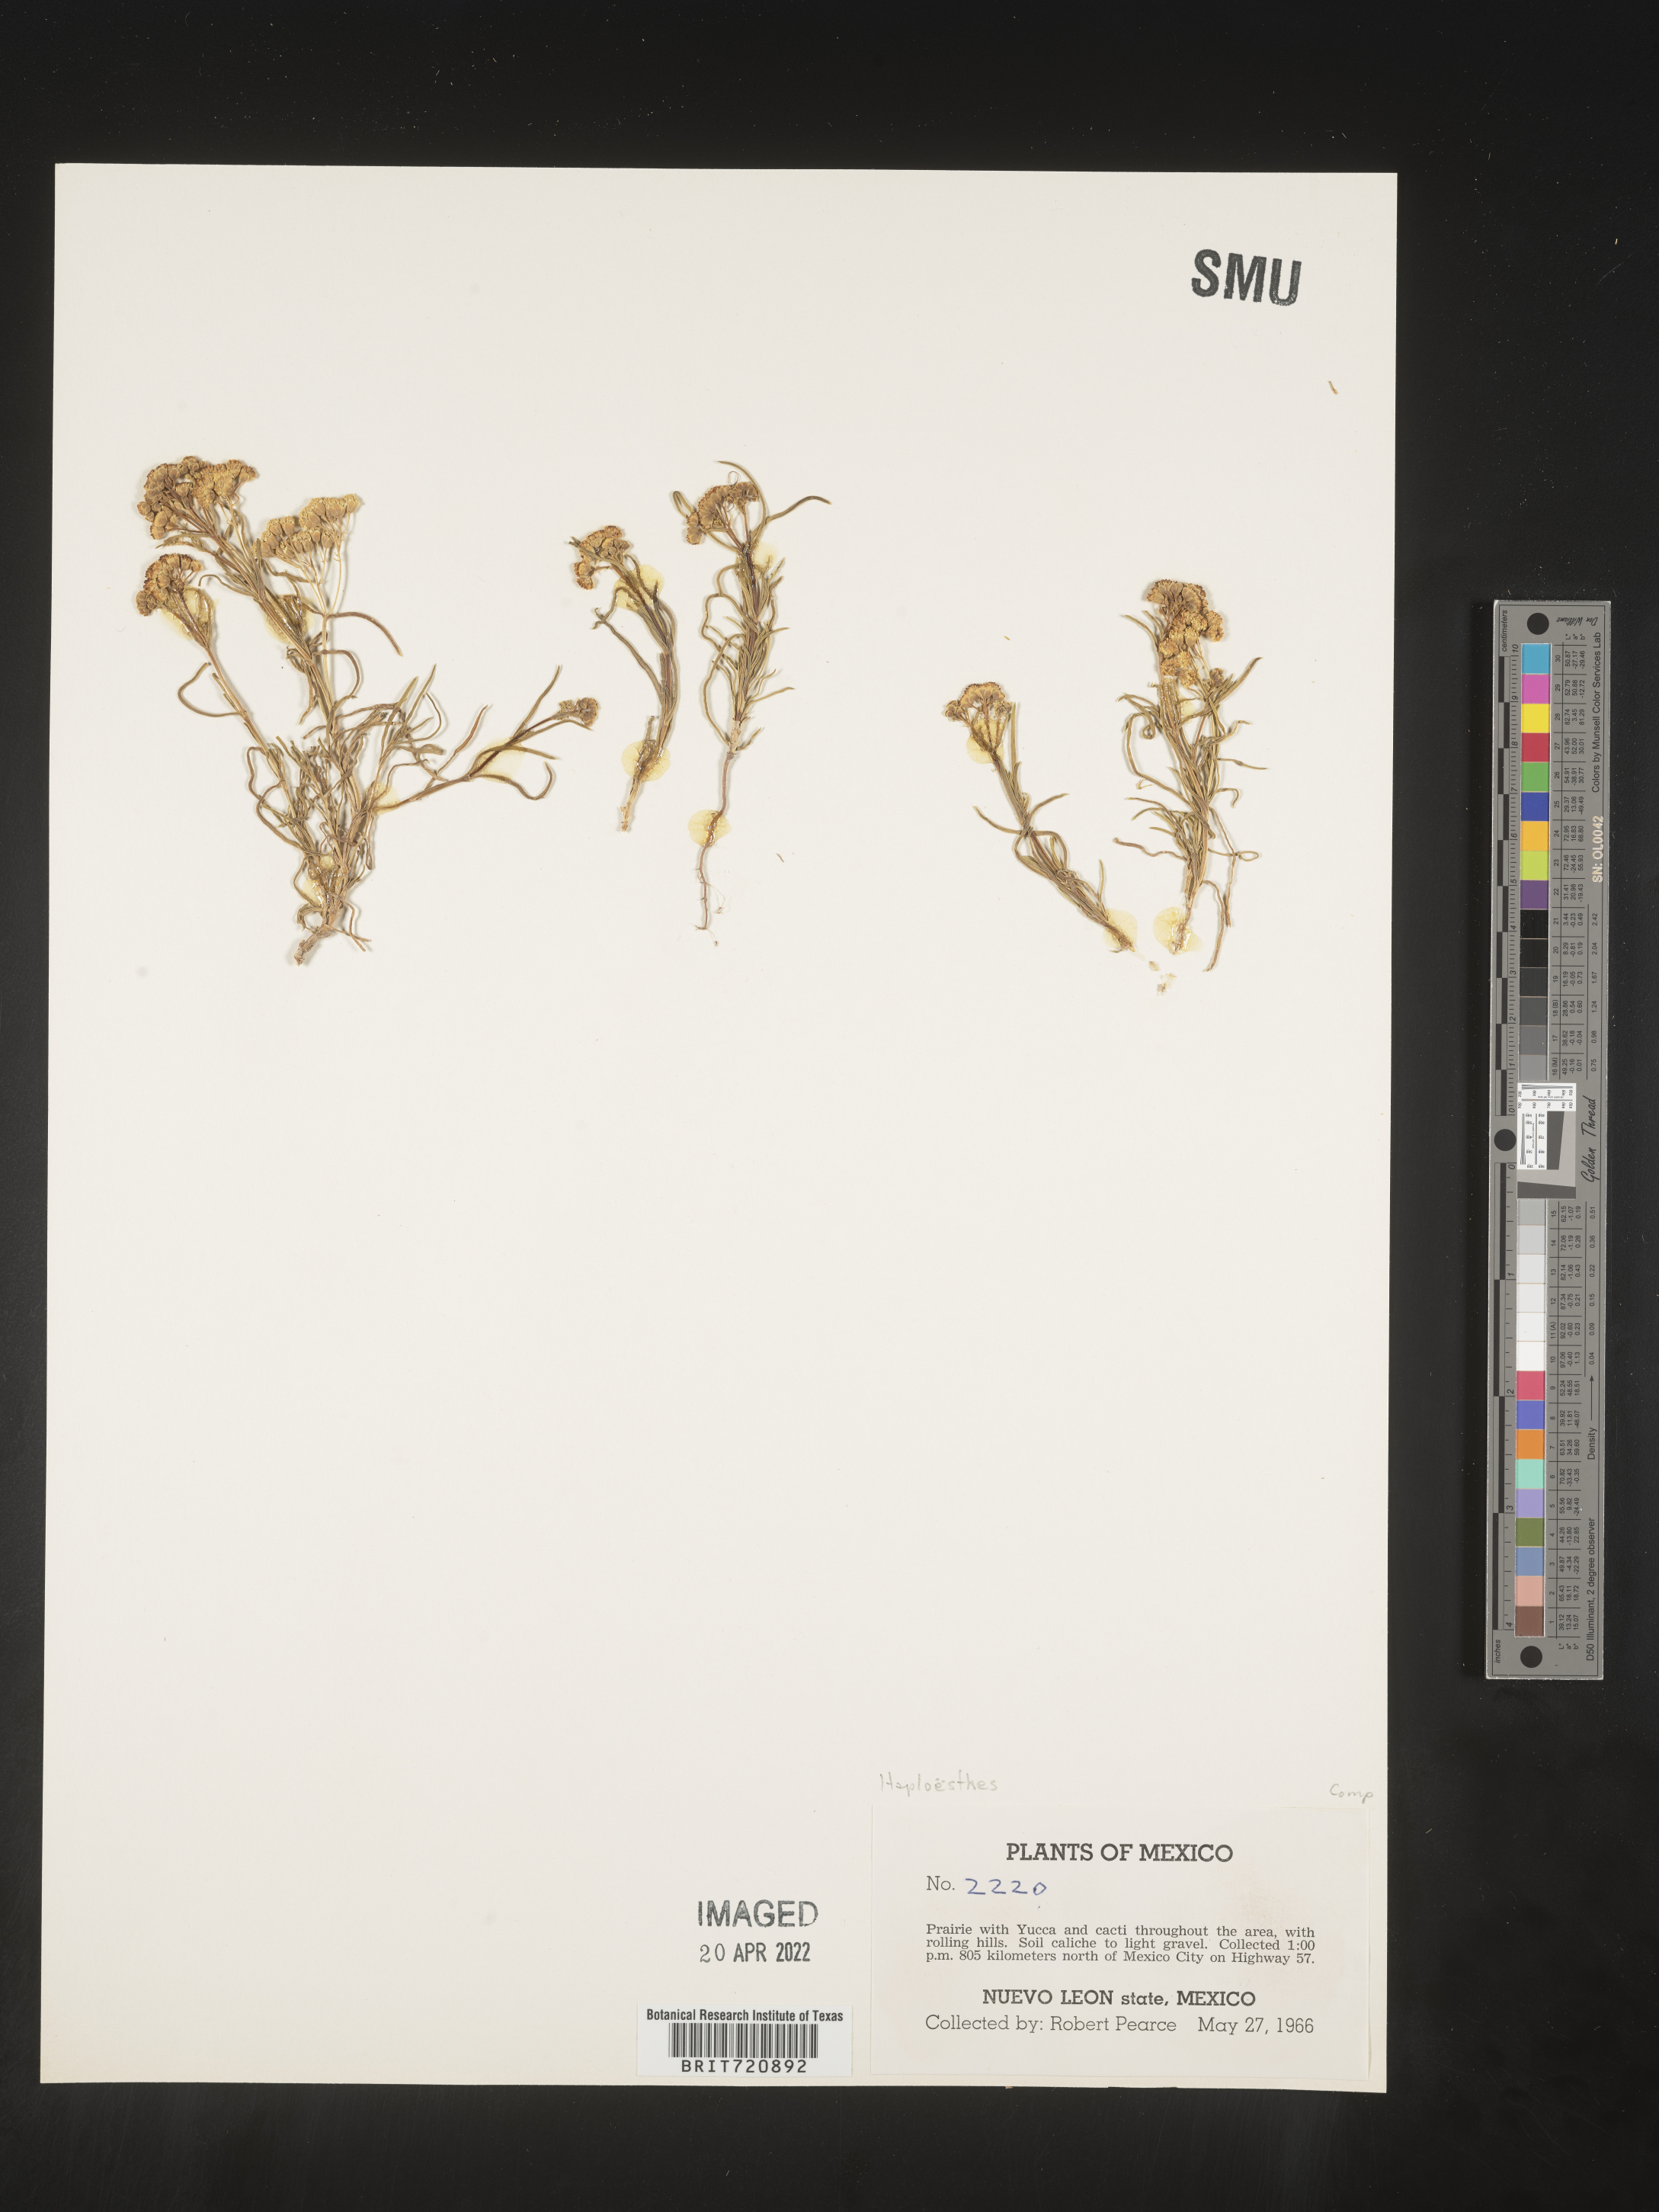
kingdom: Plantae
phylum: Tracheophyta
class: Magnoliopsida
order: Asterales
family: Asteraceae
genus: Haploesthes
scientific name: Haploesthes greggii
